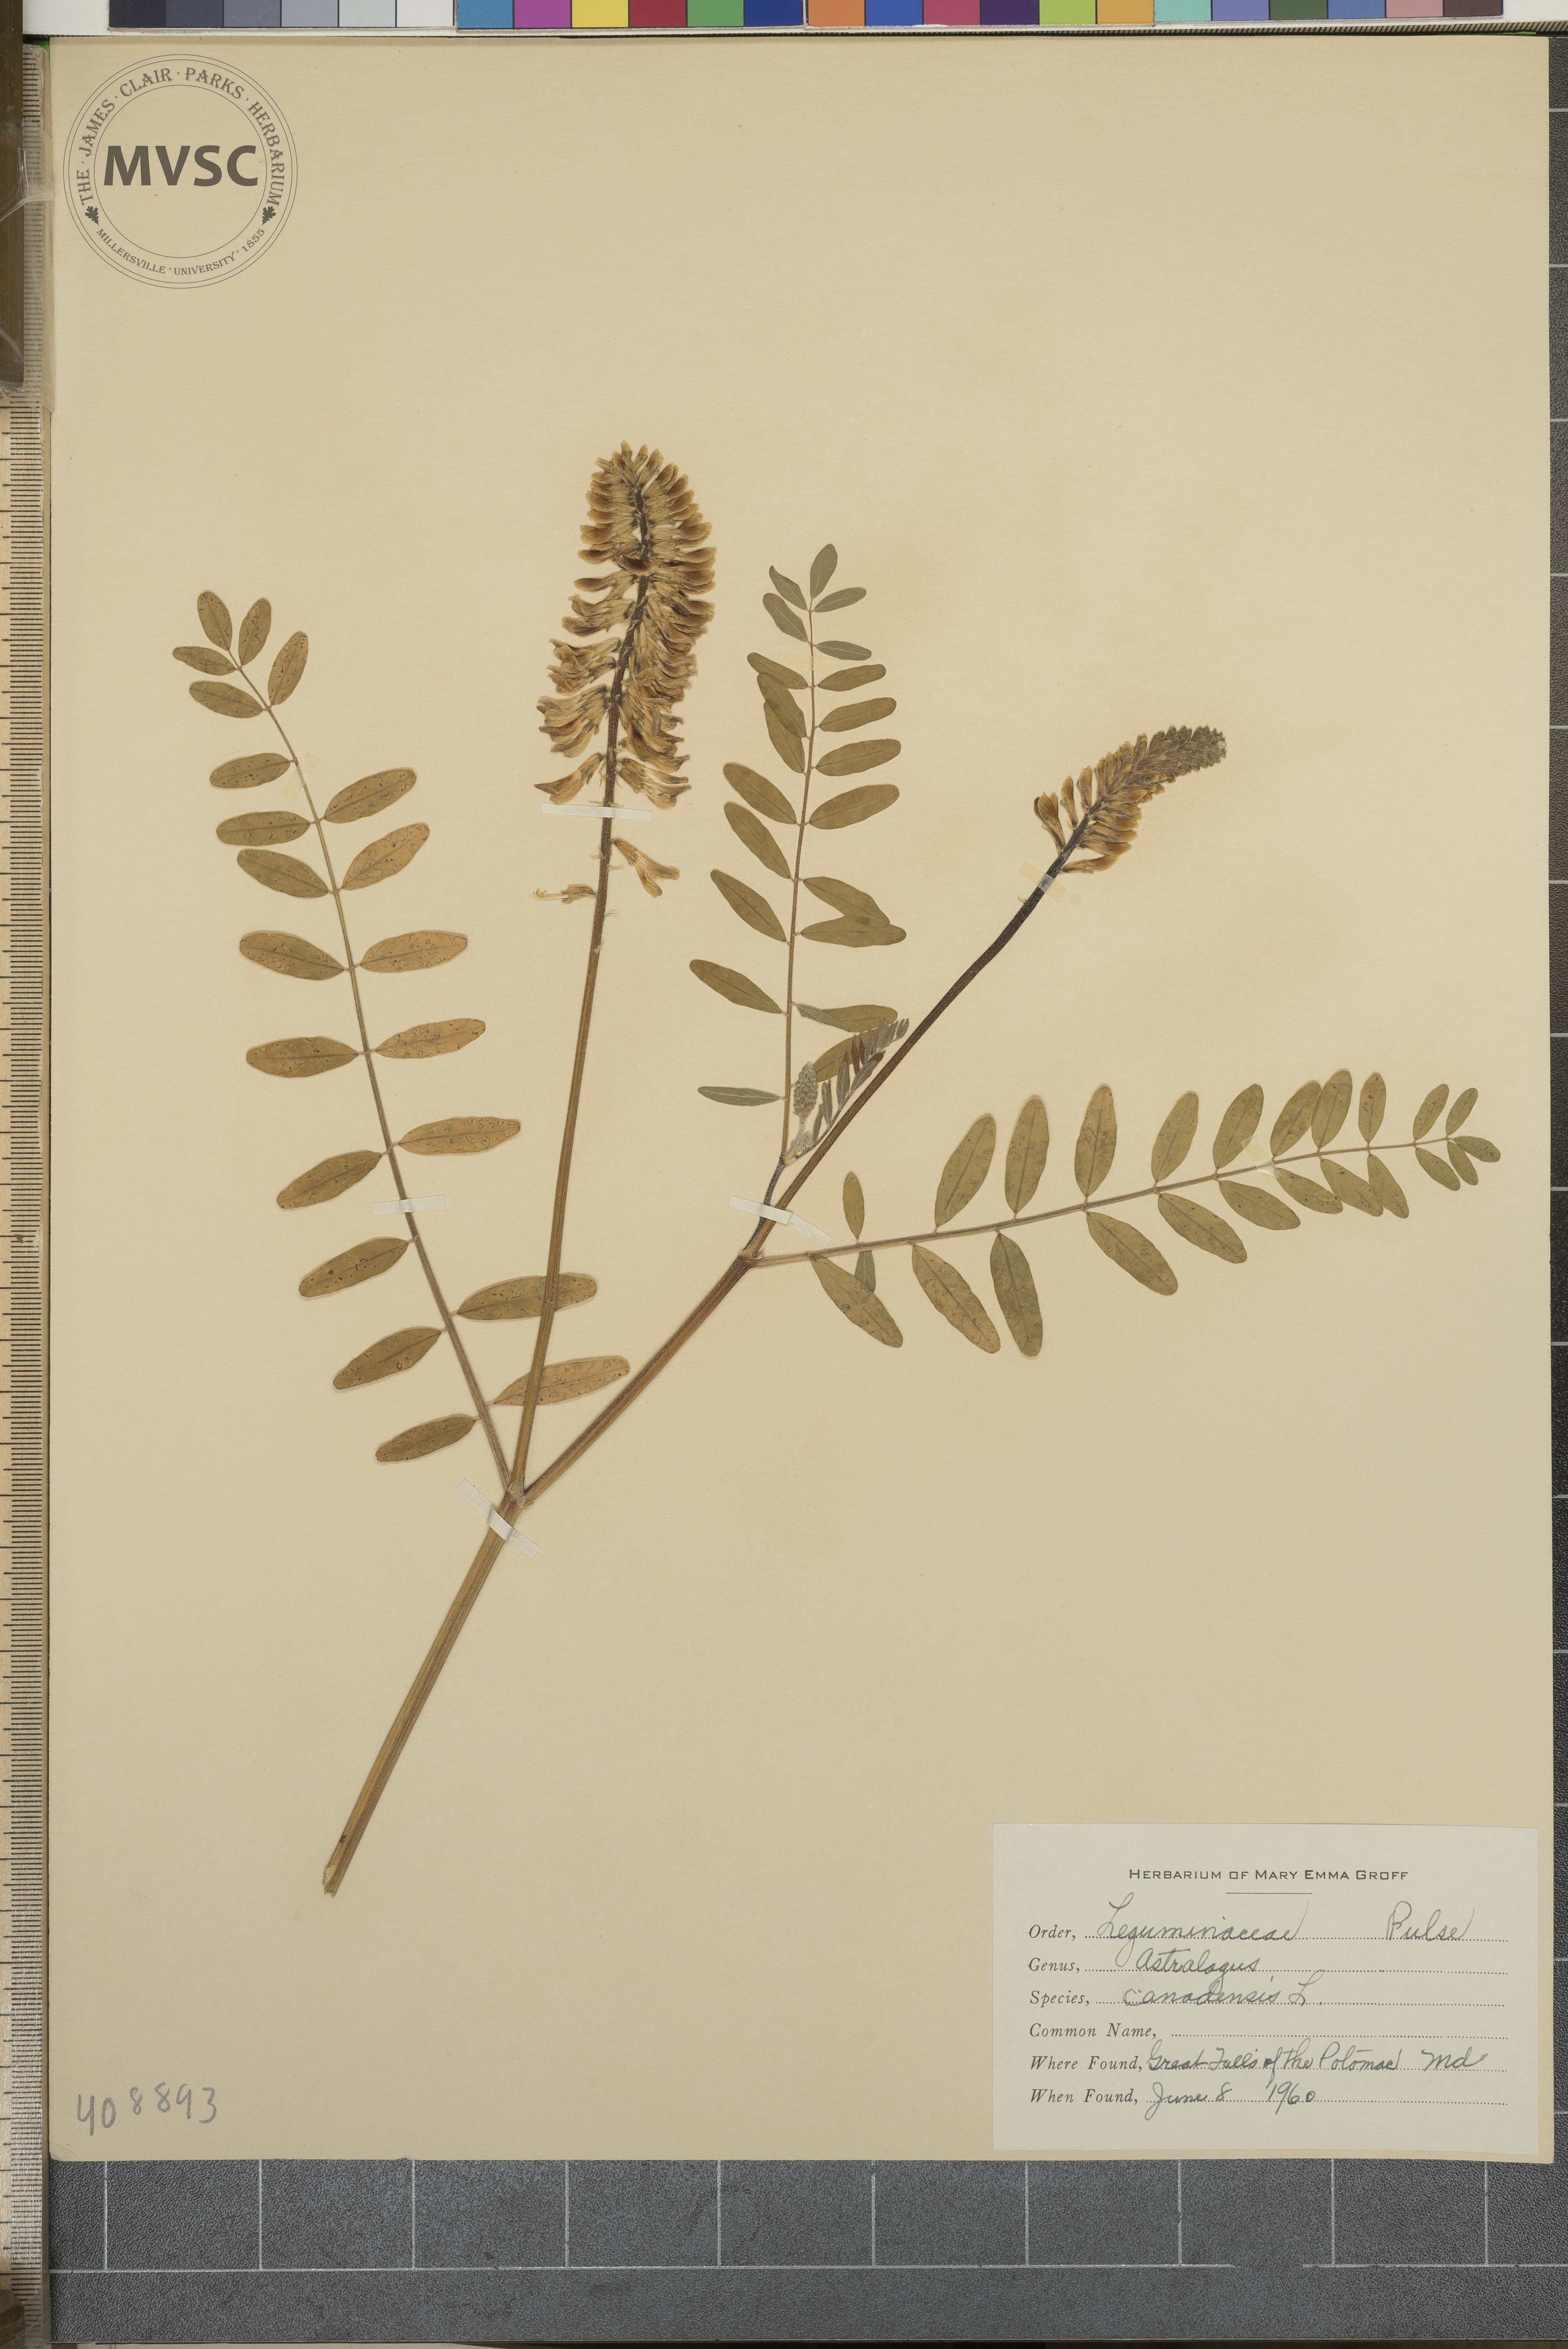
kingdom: Plantae
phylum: Tracheophyta
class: Magnoliopsida
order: Fabales
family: Fabaceae
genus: Astragalus
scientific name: Astragalus canadensis
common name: Canada milk-vetch
